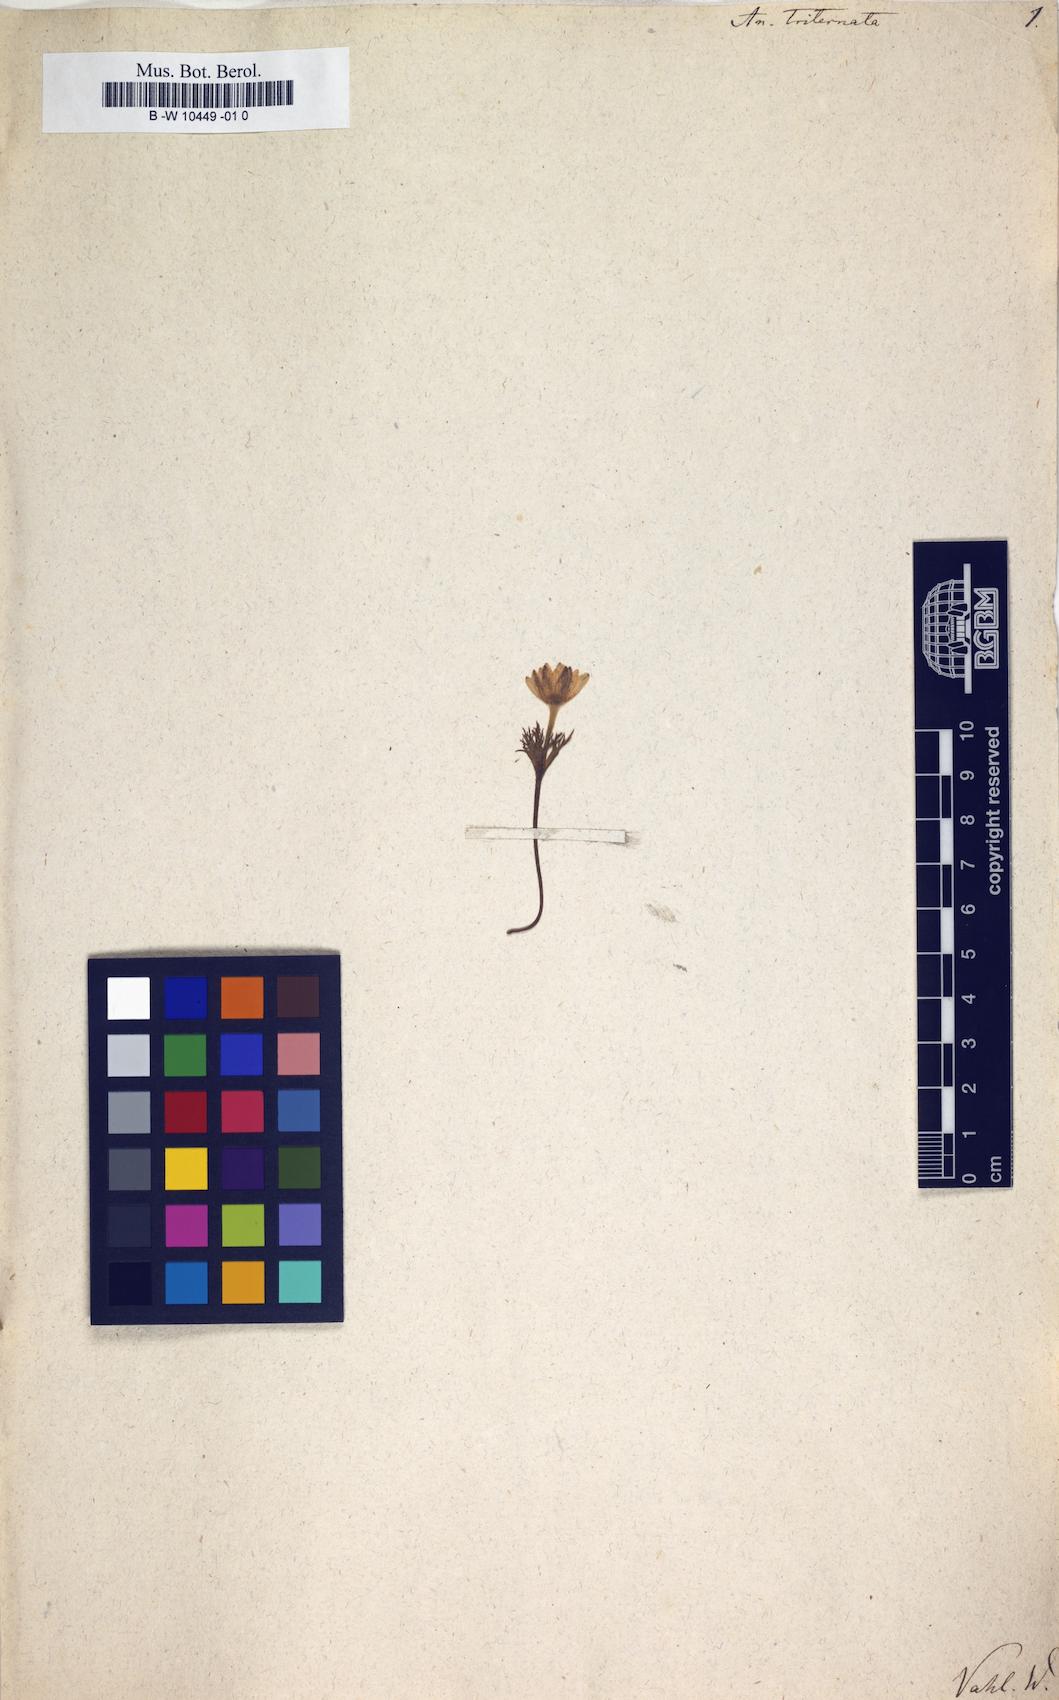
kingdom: Plantae
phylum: Tracheophyta
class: Magnoliopsida
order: Ranunculales
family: Ranunculaceae
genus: Anemone
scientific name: Anemone decapetala
